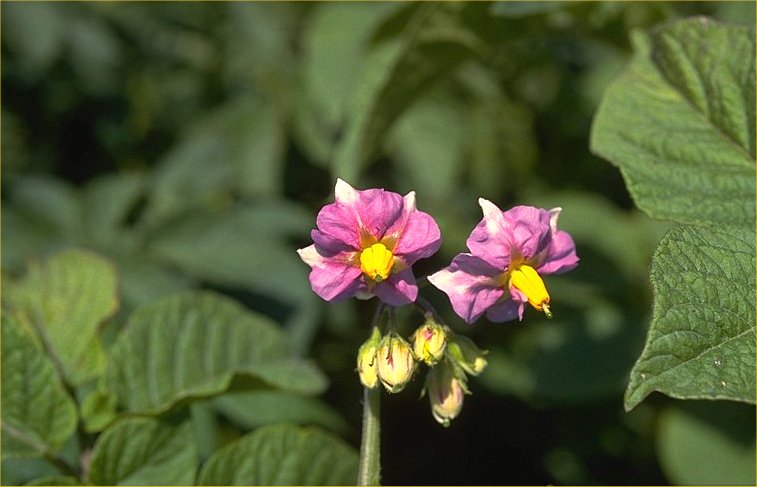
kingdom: Plantae
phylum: Tracheophyta
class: Magnoliopsida
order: Solanales
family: Solanaceae
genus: Solanum
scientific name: Solanum tuberosum
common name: Potato
